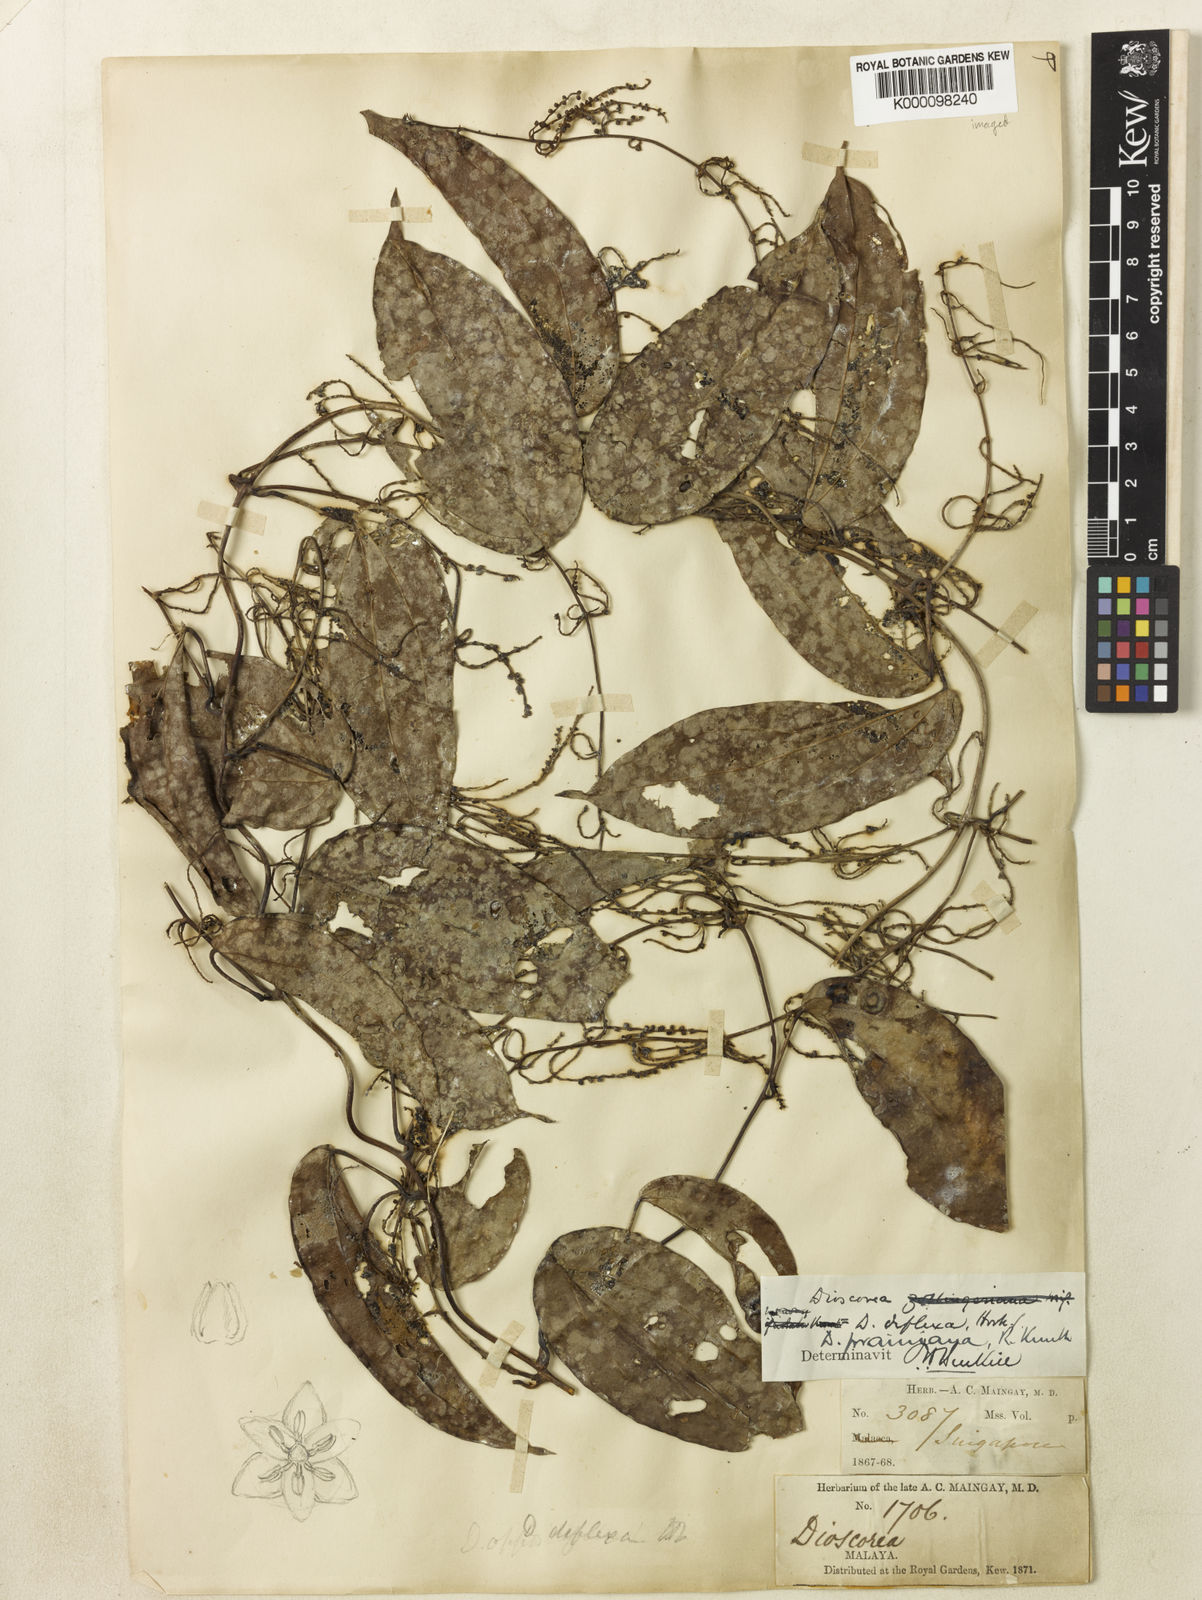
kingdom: Plantae
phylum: Tracheophyta
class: Liliopsida
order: Dioscoreales
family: Dioscoreaceae
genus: Dioscorea
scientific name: Dioscorea prainiana
